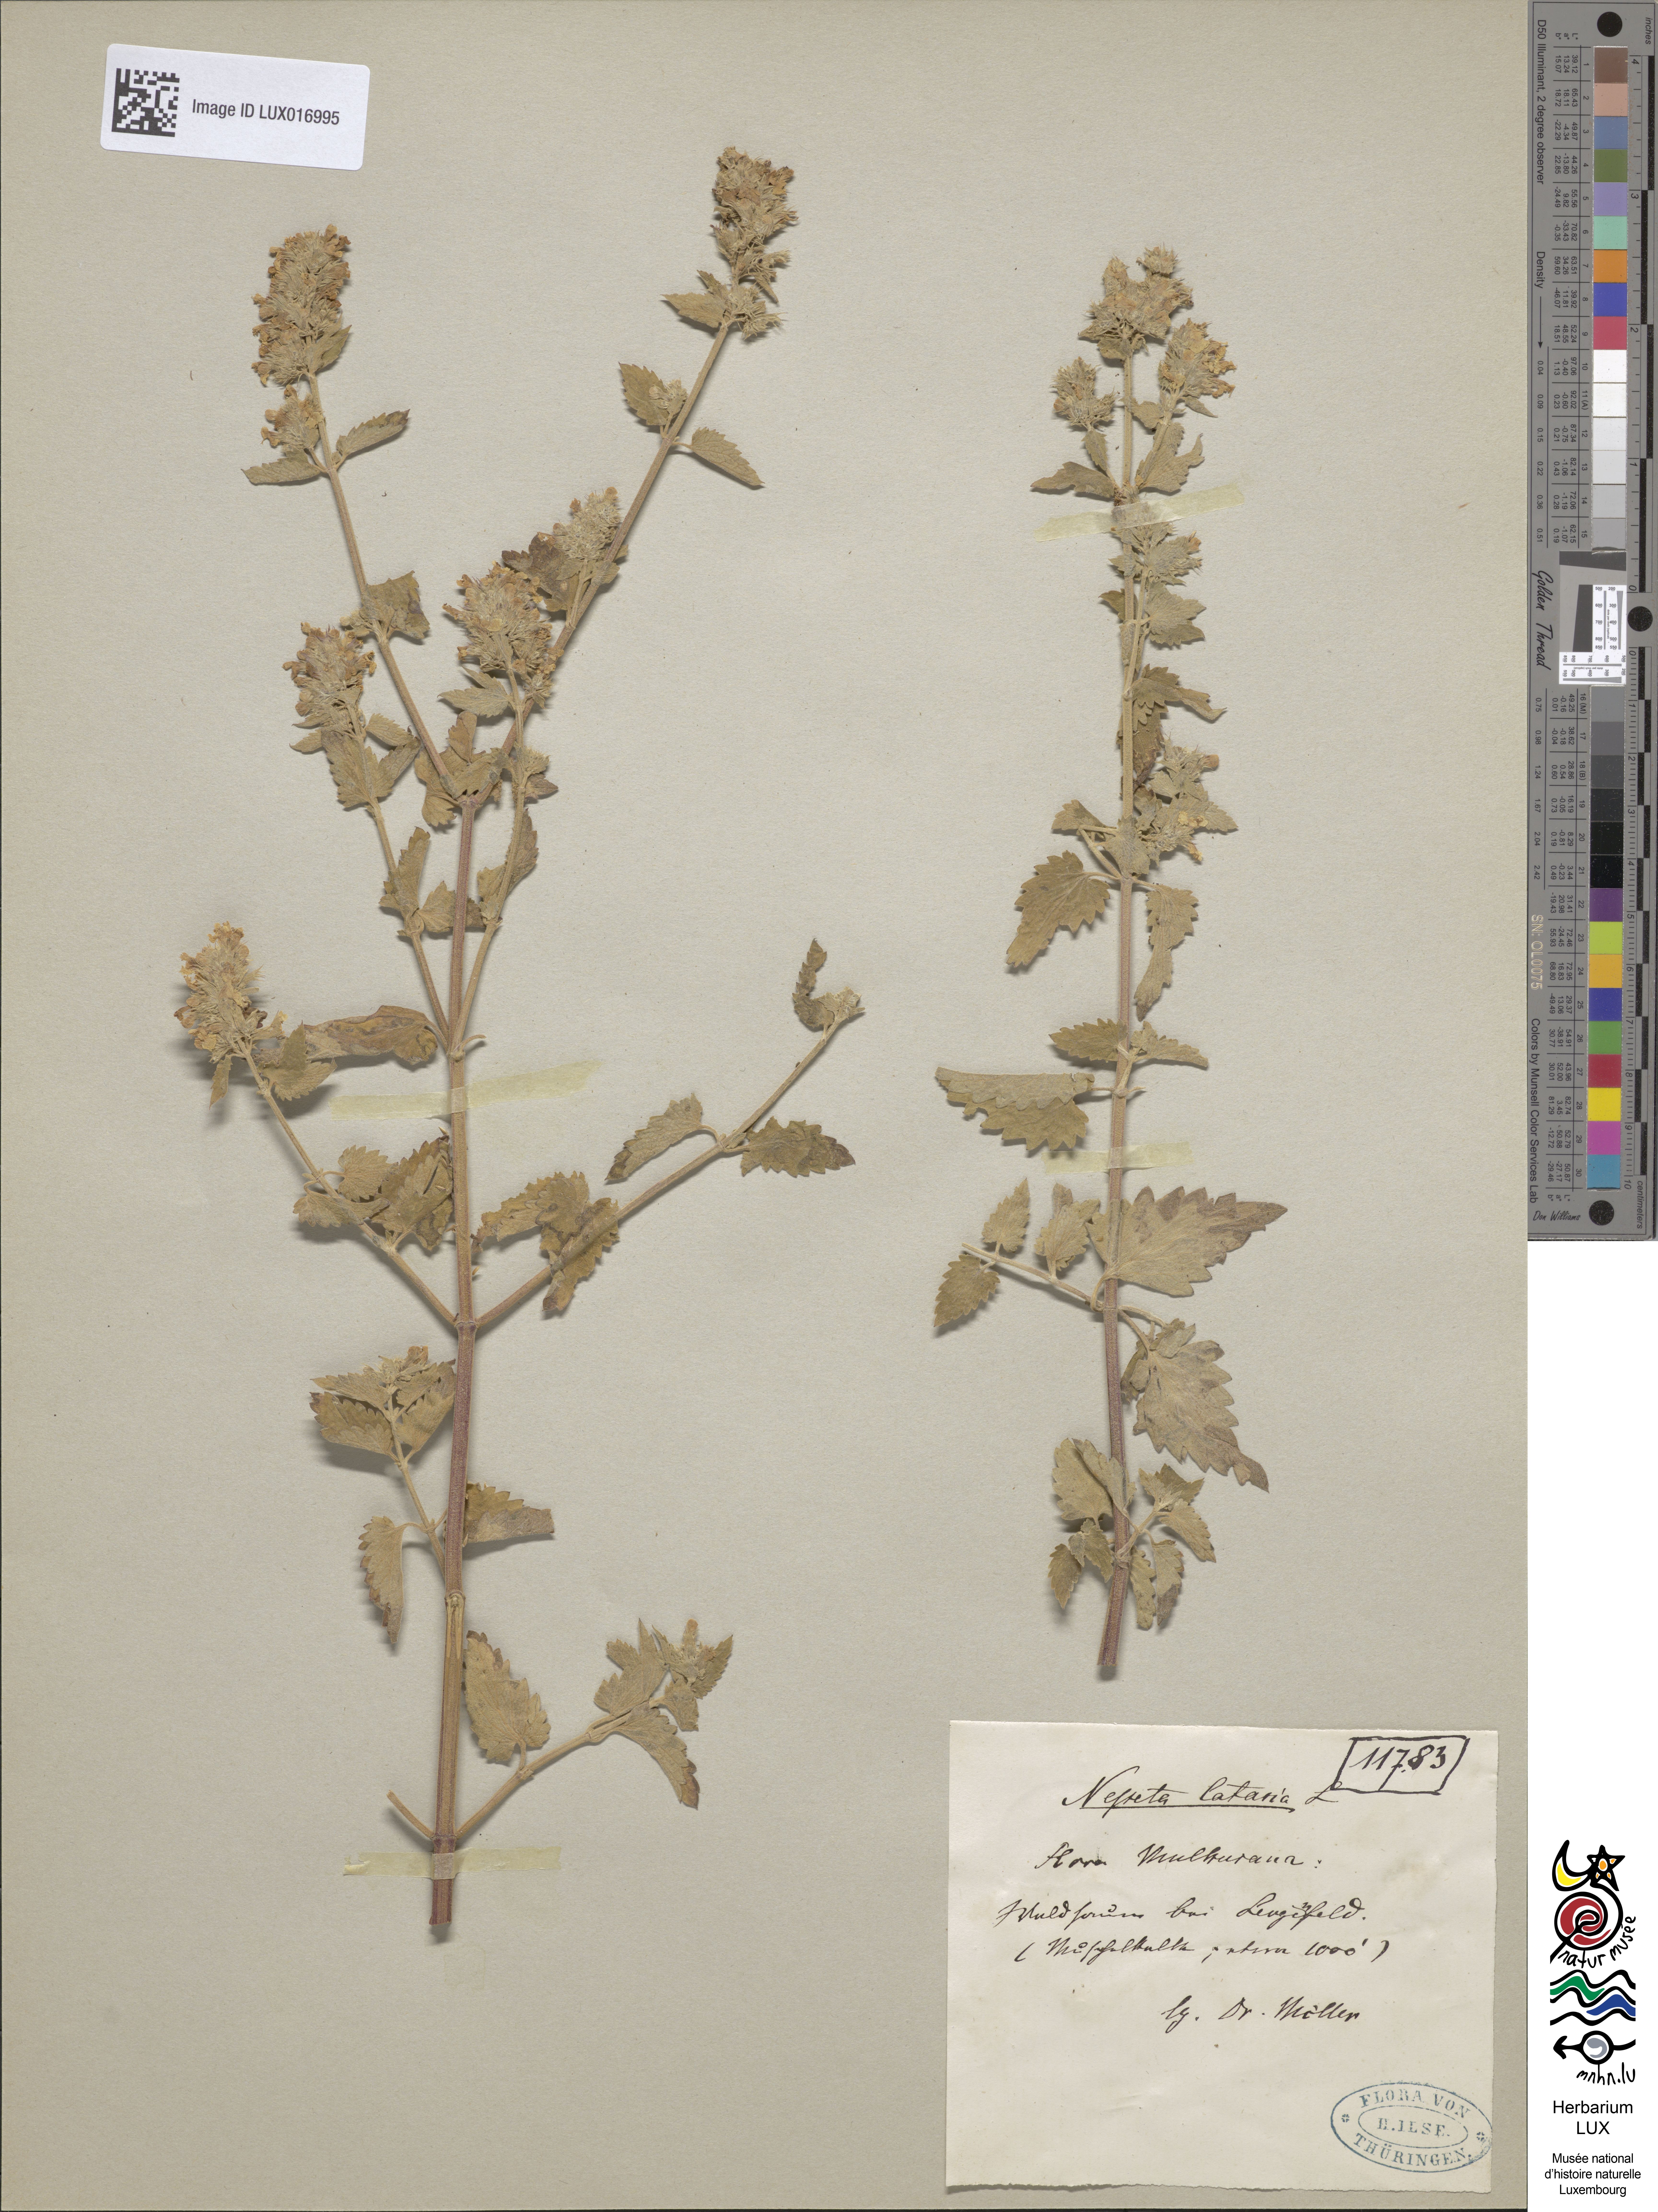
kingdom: Plantae
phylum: Tracheophyta
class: Magnoliopsida
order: Lamiales
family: Lamiaceae
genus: Nepeta
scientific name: Nepeta cataria
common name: Catnip
